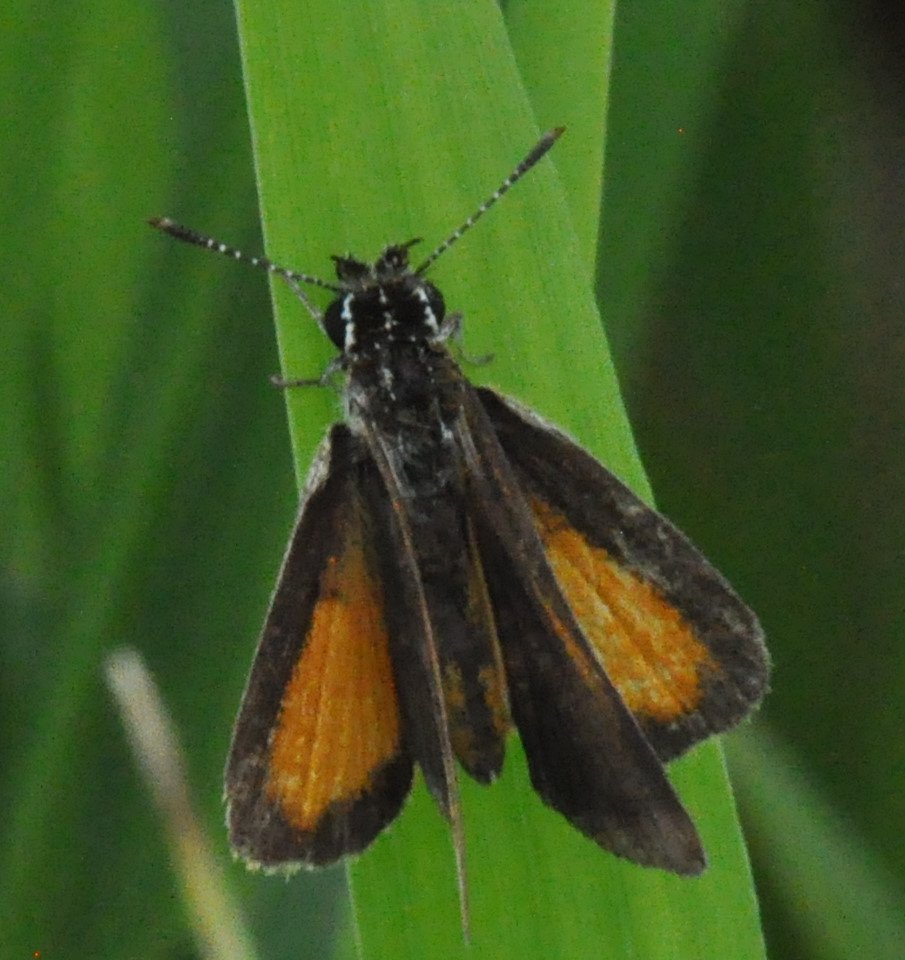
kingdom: Animalia
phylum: Arthropoda
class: Insecta
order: Lepidoptera
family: Hesperiidae
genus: Ancyloxypha
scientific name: Ancyloxypha numitor
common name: Least Skipper
